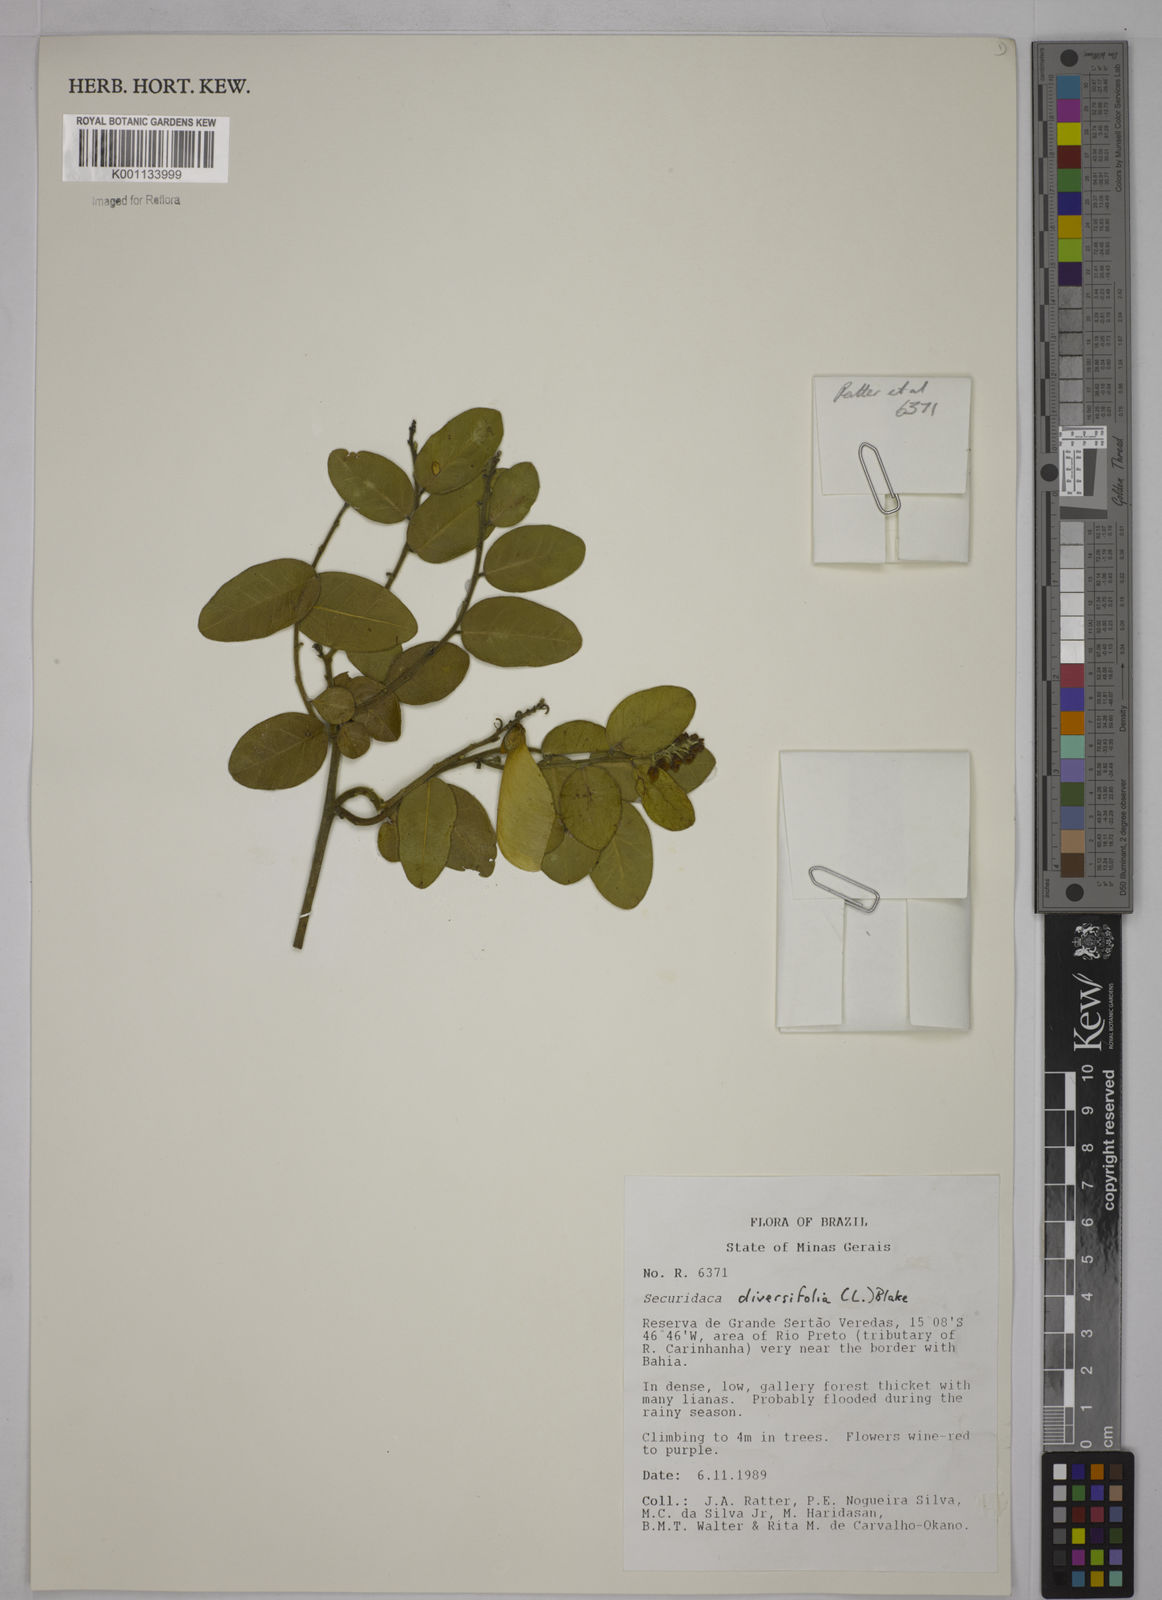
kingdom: Plantae
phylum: Tracheophyta
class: Magnoliopsida
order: Fabales
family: Polygalaceae
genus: Securidaca
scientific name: Securidaca diversifolia
